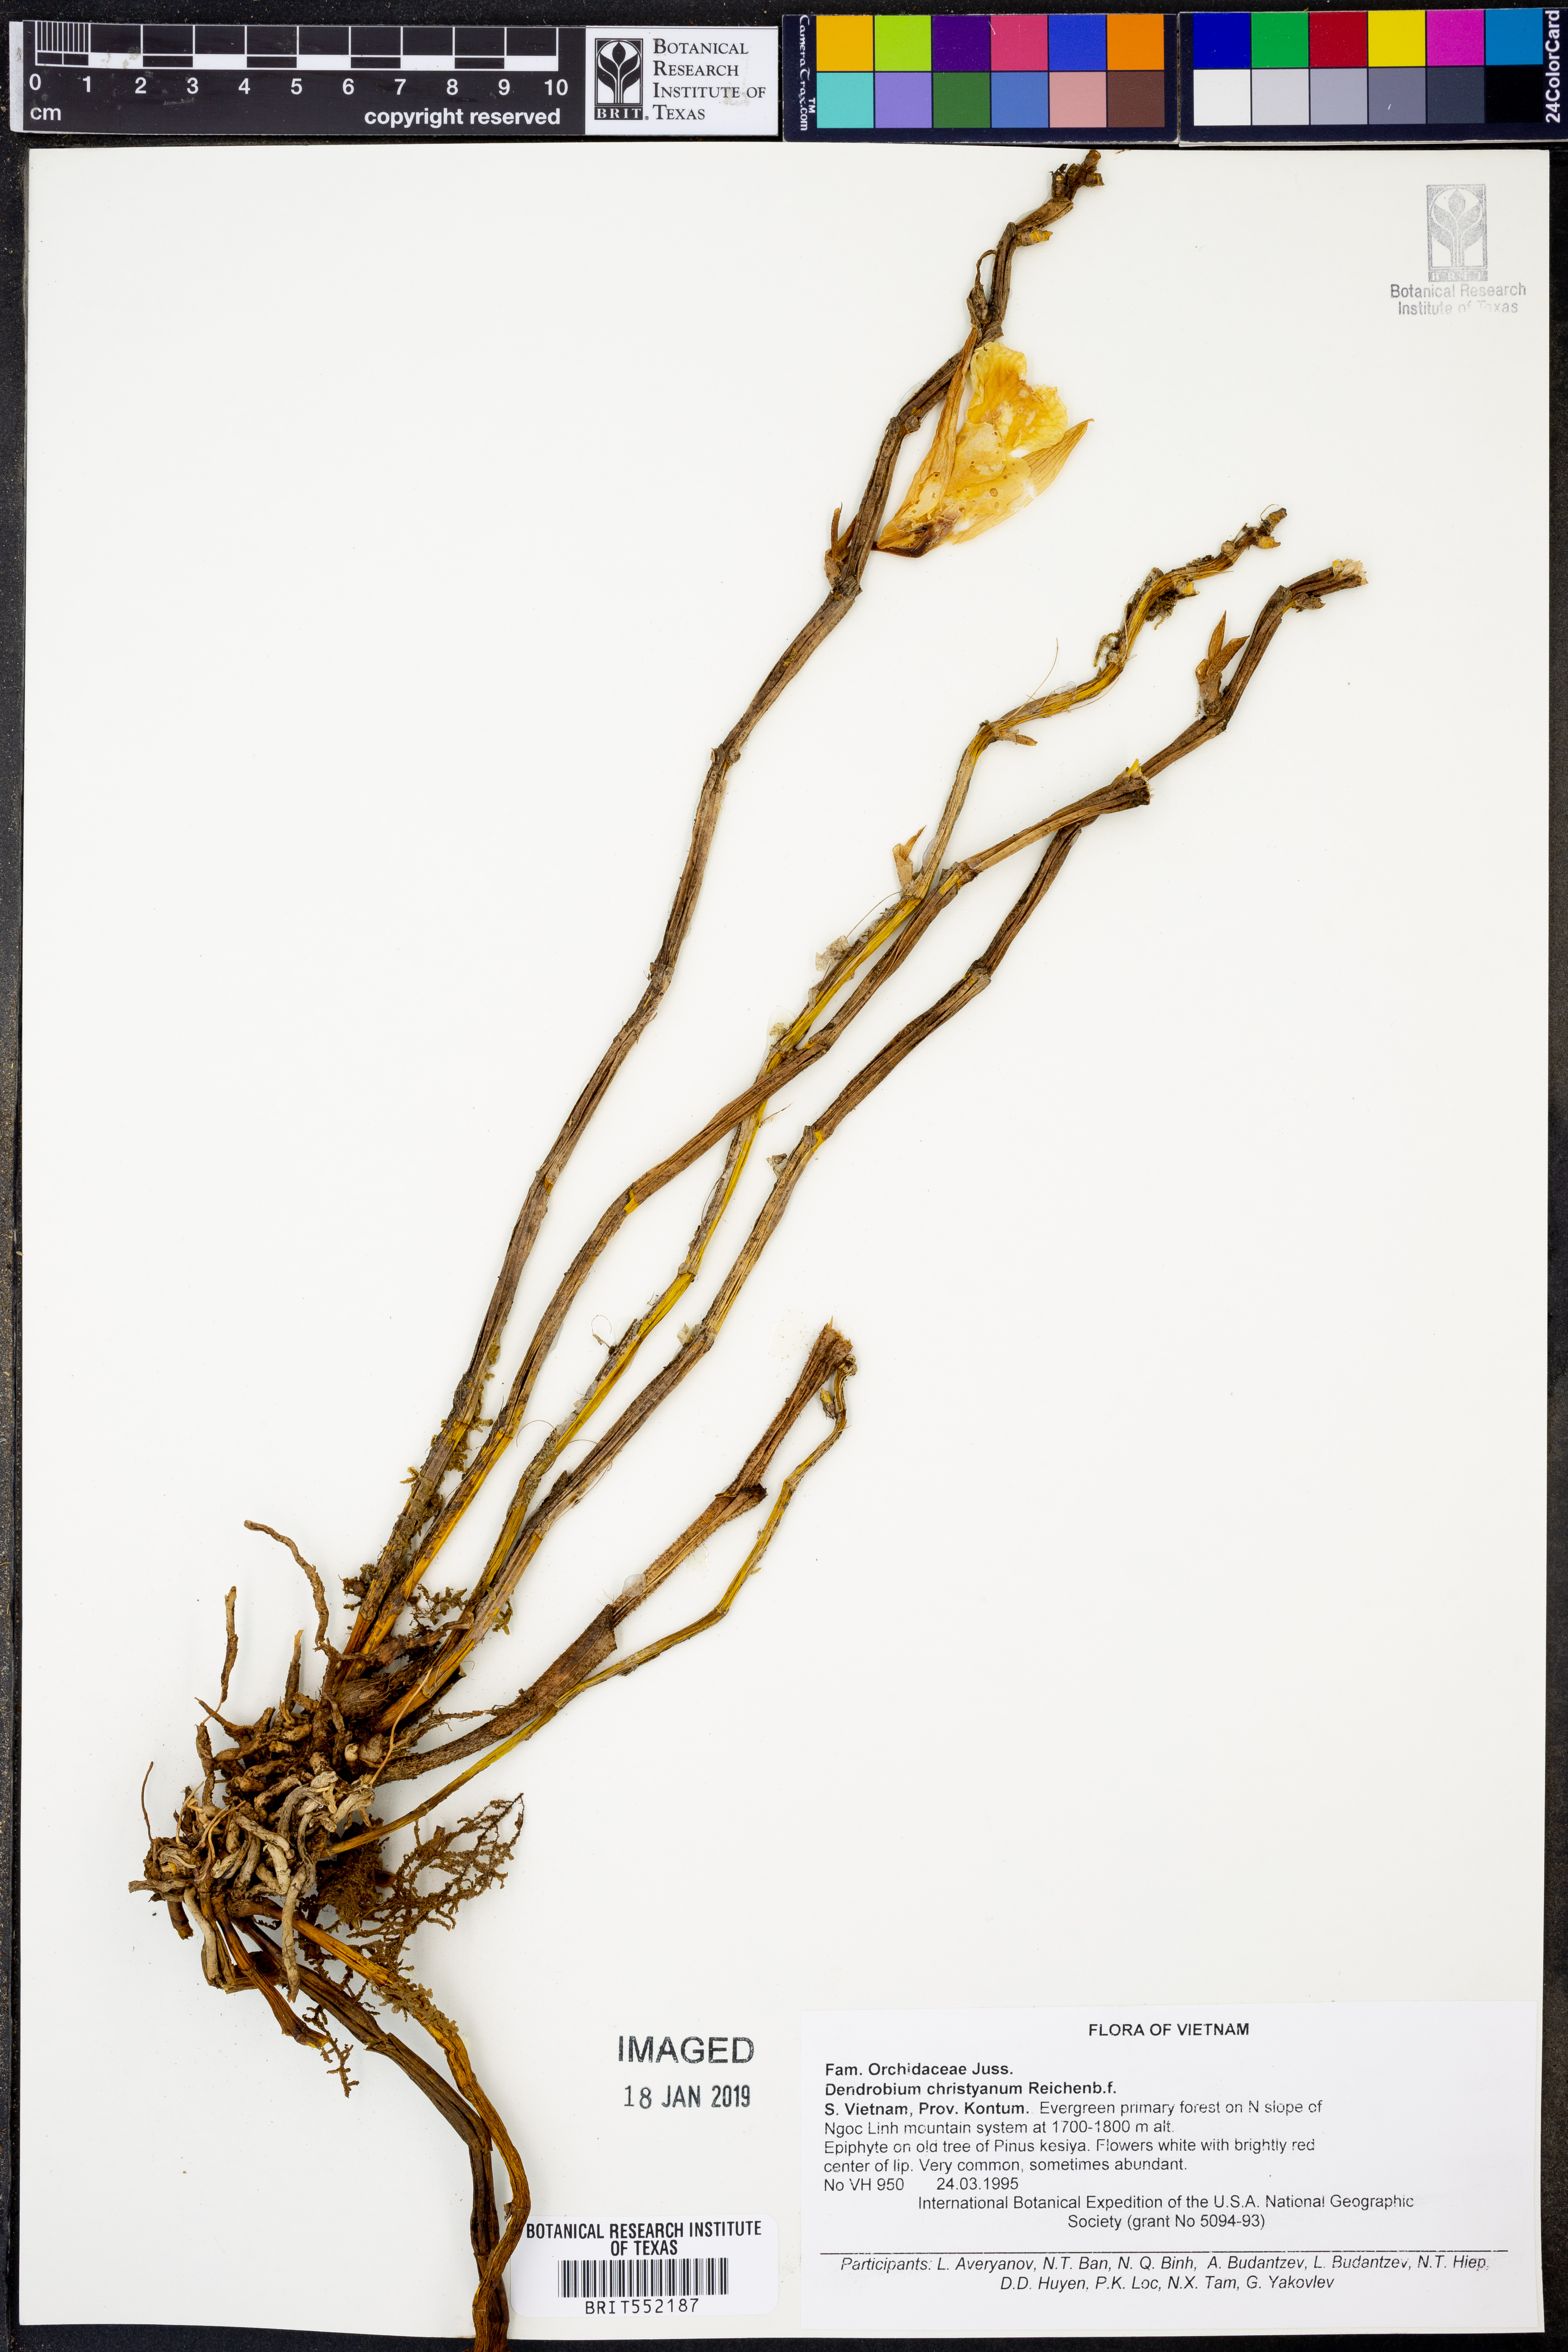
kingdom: Plantae
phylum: Tracheophyta
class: Liliopsida
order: Asparagales
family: Orchidaceae
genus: Dendrobium
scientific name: Dendrobium christyanum
